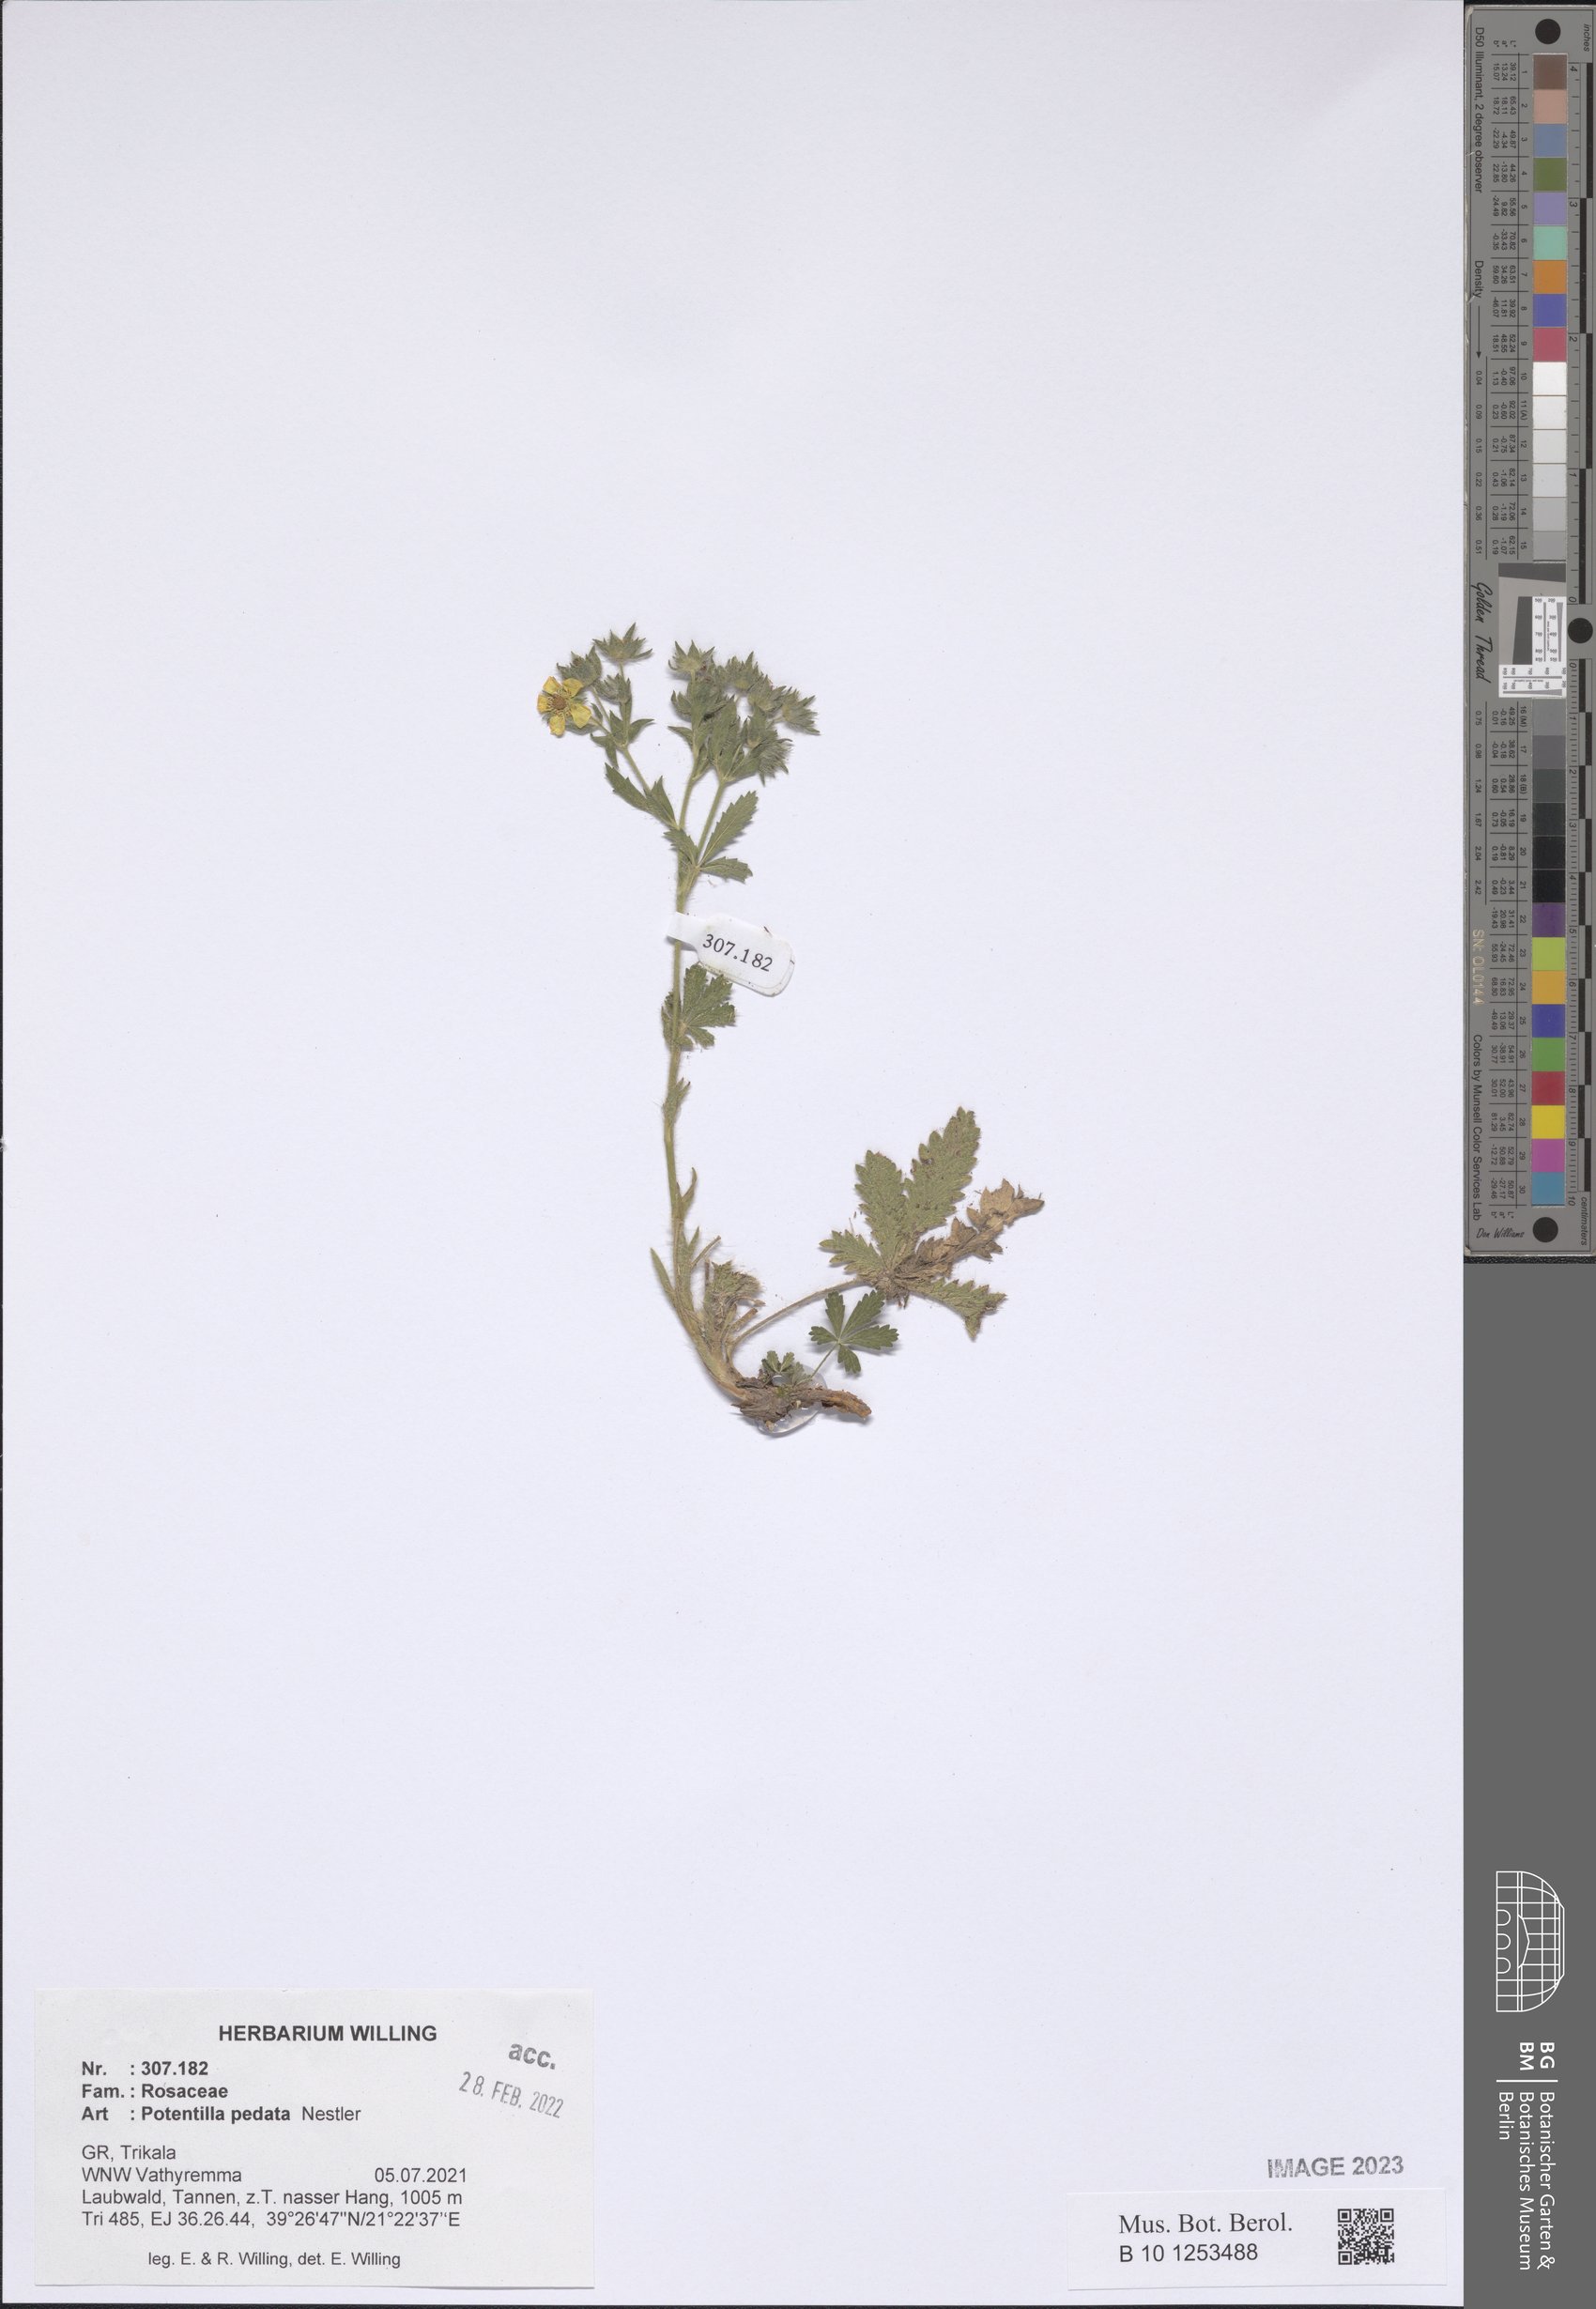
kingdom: Plantae
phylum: Tracheophyta
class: Magnoliopsida
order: Rosales
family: Rosaceae
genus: Potentilla
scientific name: Potentilla pedata
